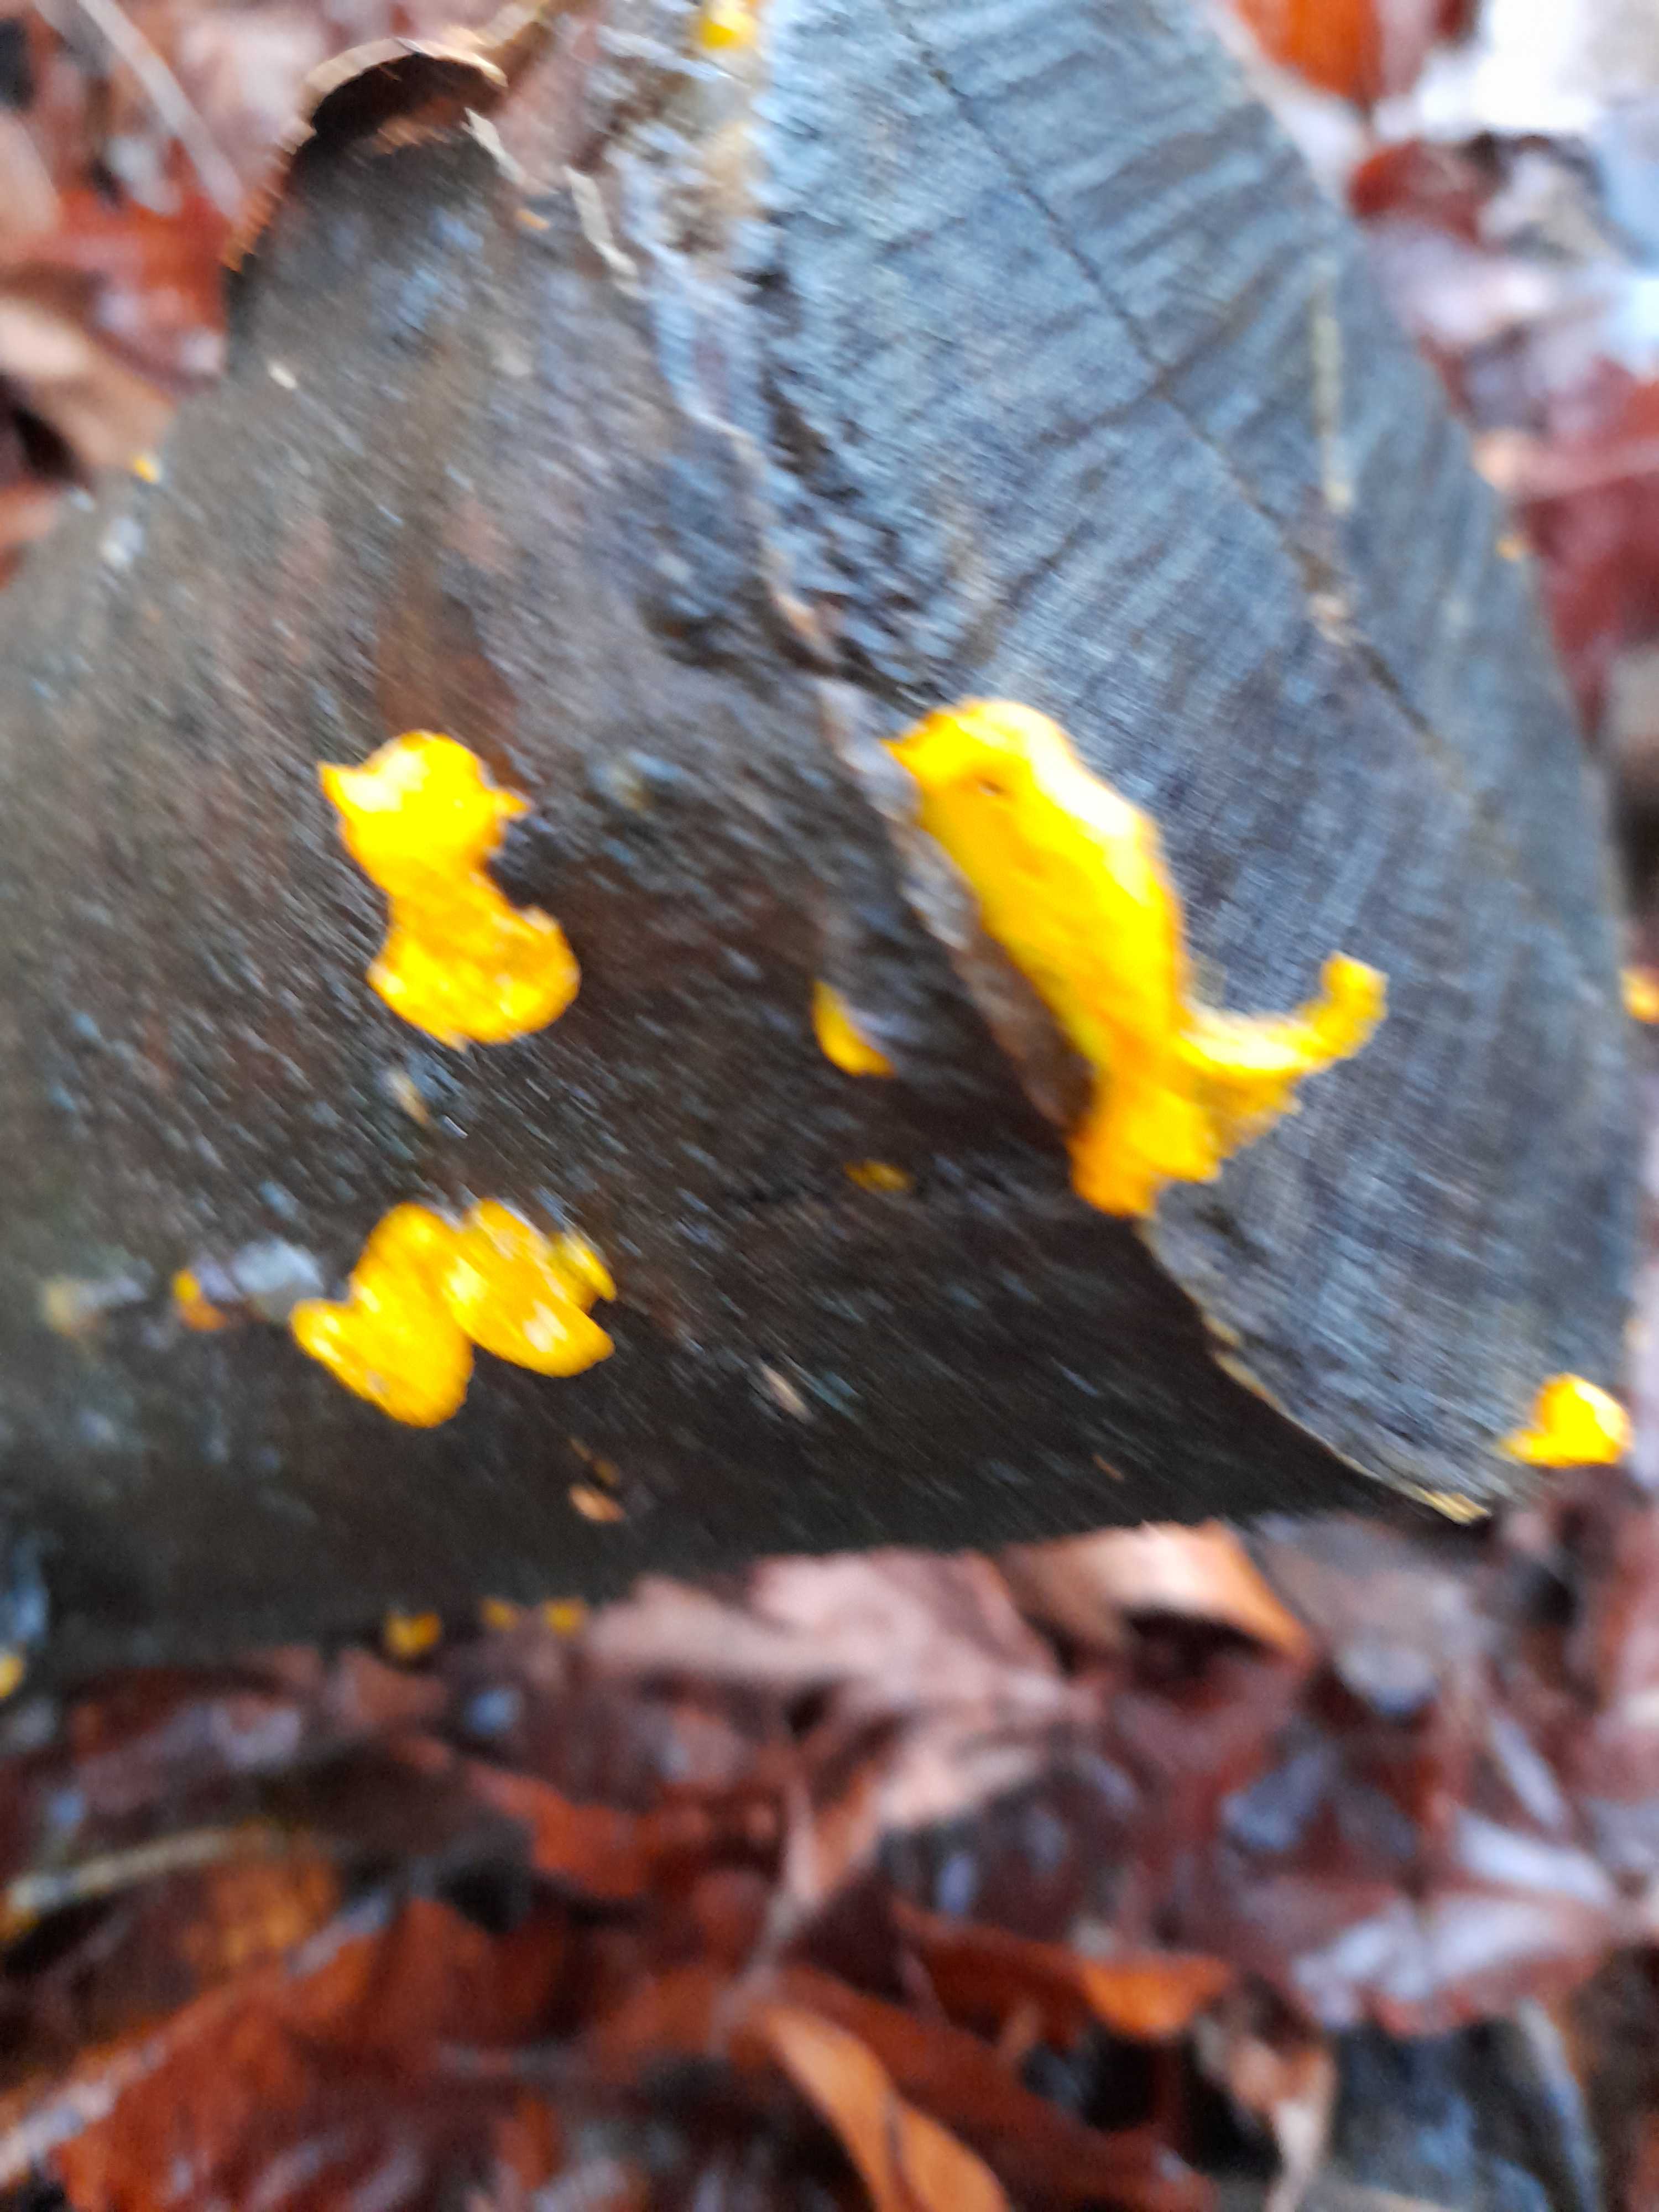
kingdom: Fungi
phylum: Basidiomycota
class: Tremellomycetes
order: Tremellales
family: Tremellaceae
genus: Tremella
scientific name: Tremella mesenterica
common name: gul bævresvamp
